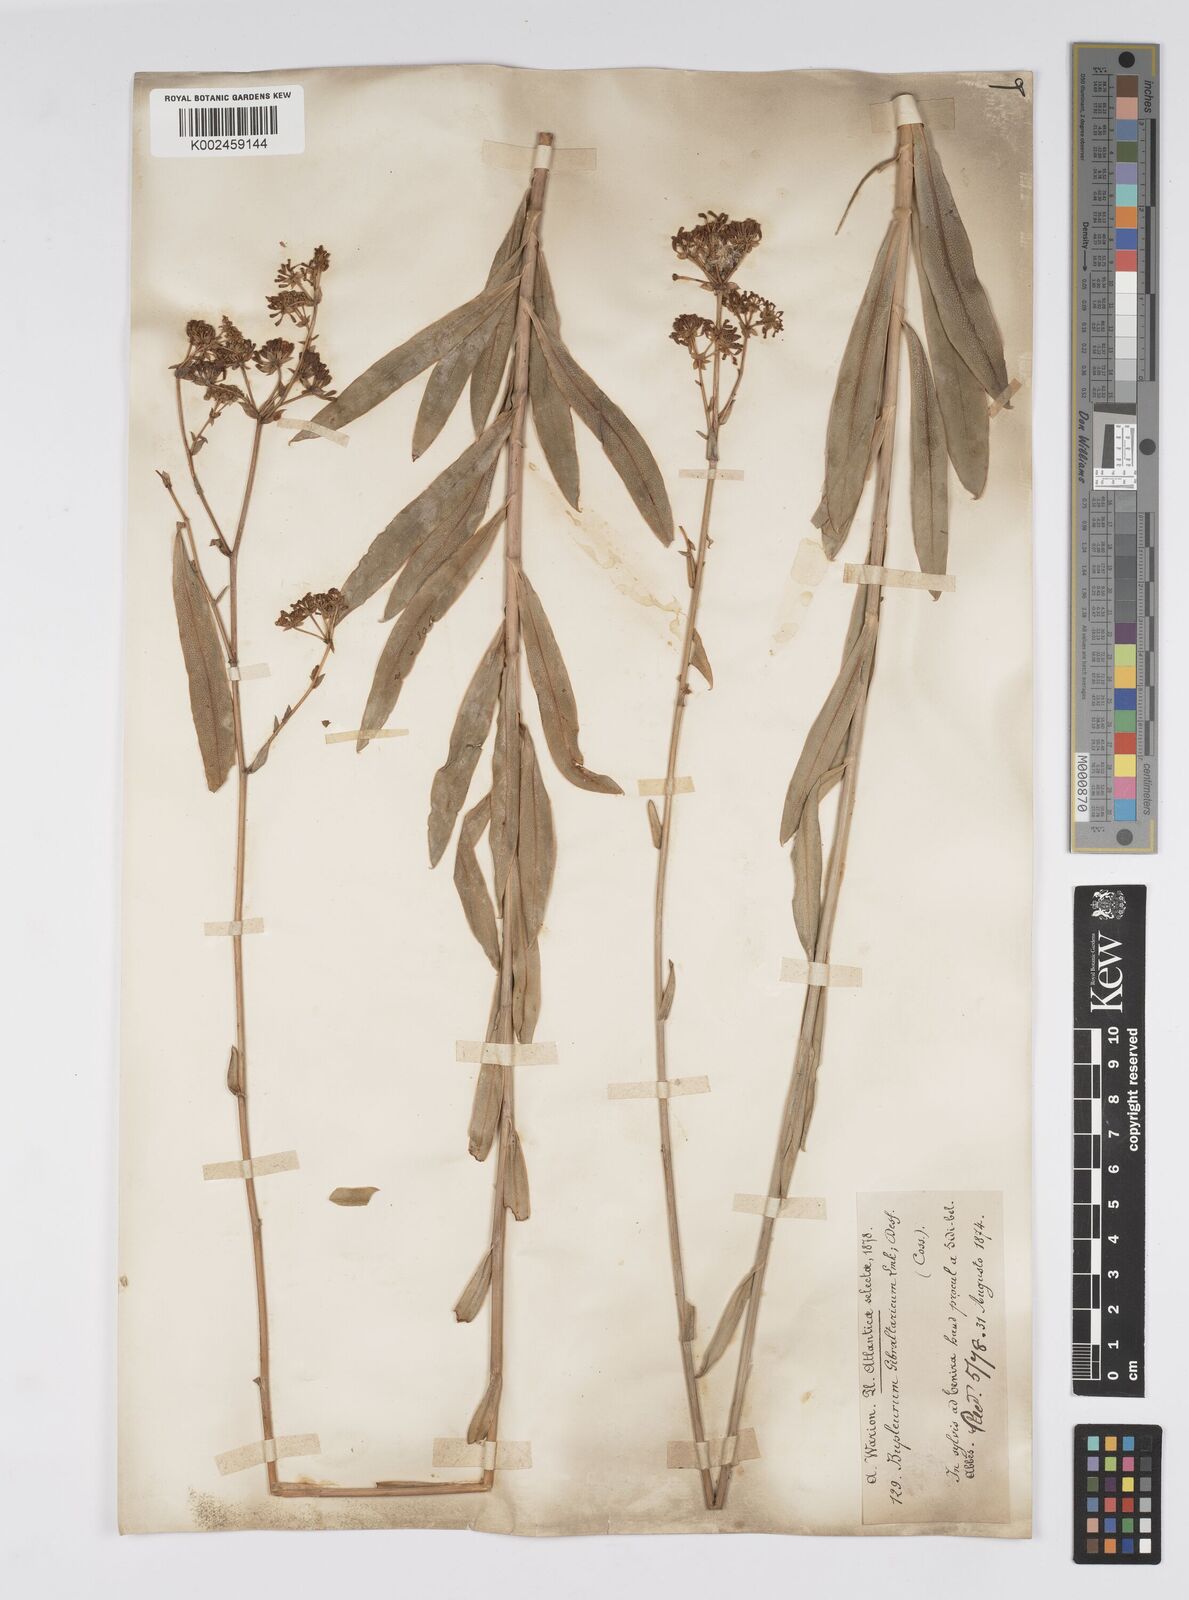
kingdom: Plantae
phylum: Tracheophyta
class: Magnoliopsida
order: Apiales
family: Apiaceae
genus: Bupleurum
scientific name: Bupleurum gibraltaricum
